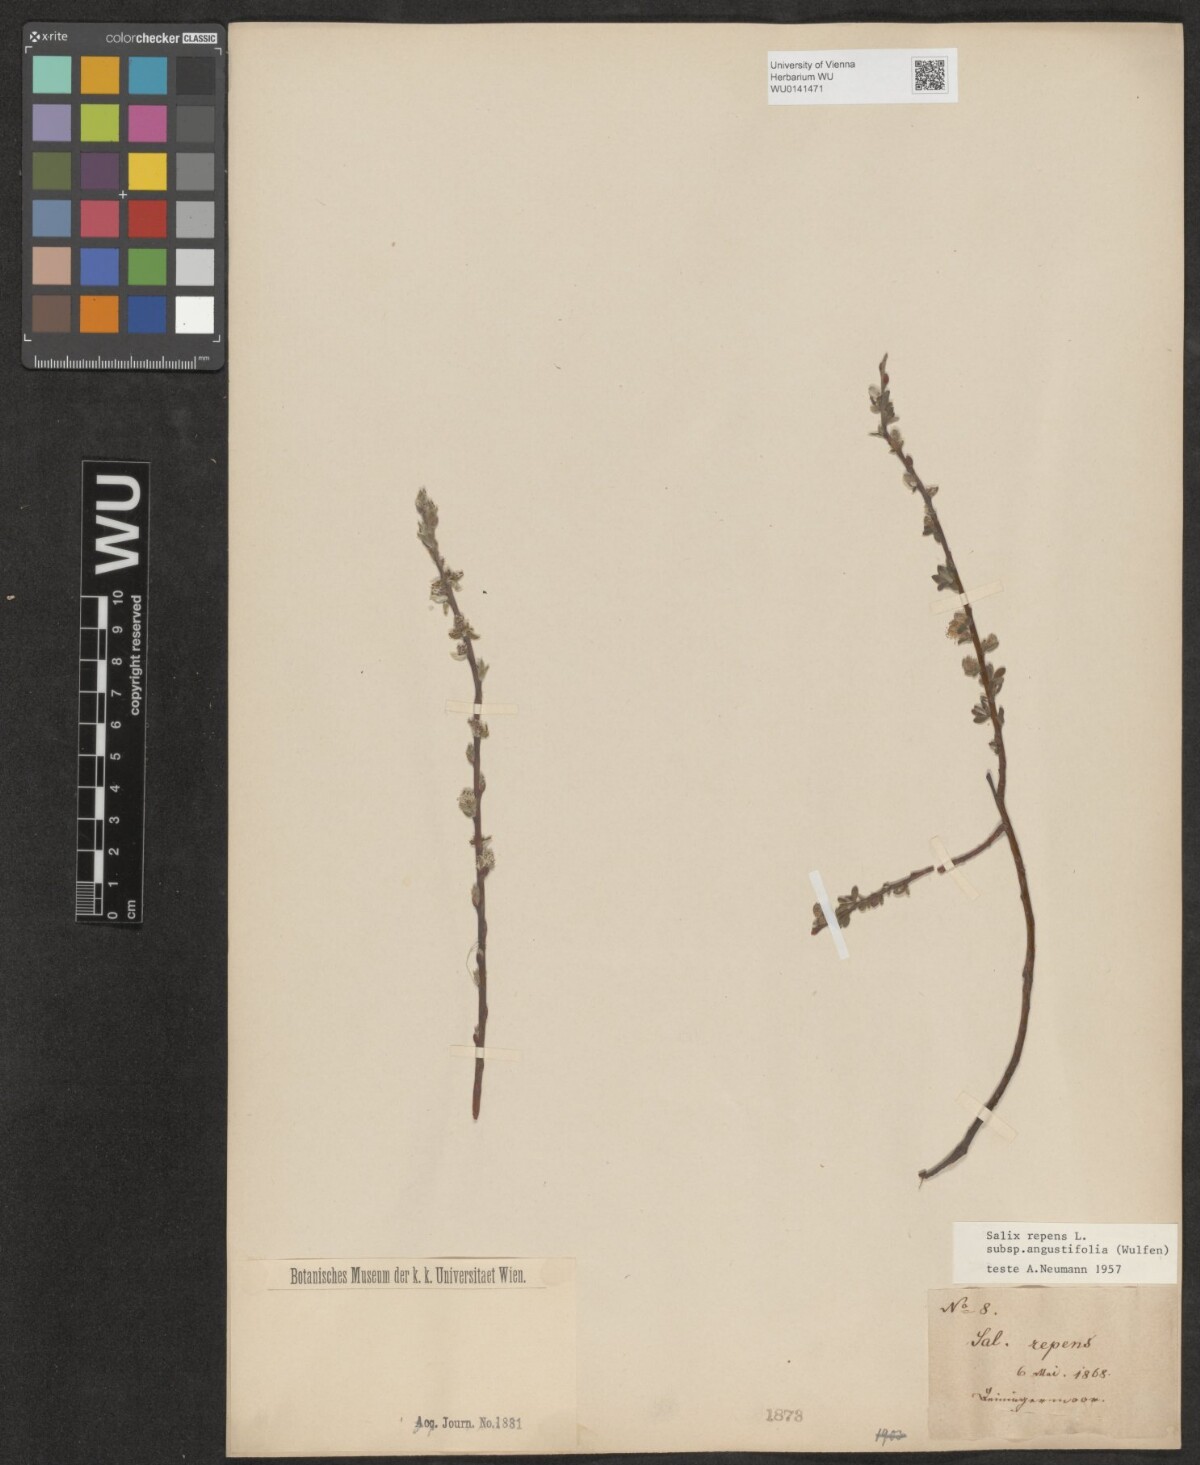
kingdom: Plantae
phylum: Tracheophyta
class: Magnoliopsida
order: Malpighiales
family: Salicaceae
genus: Salix
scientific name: Salix rosmarinifolia
